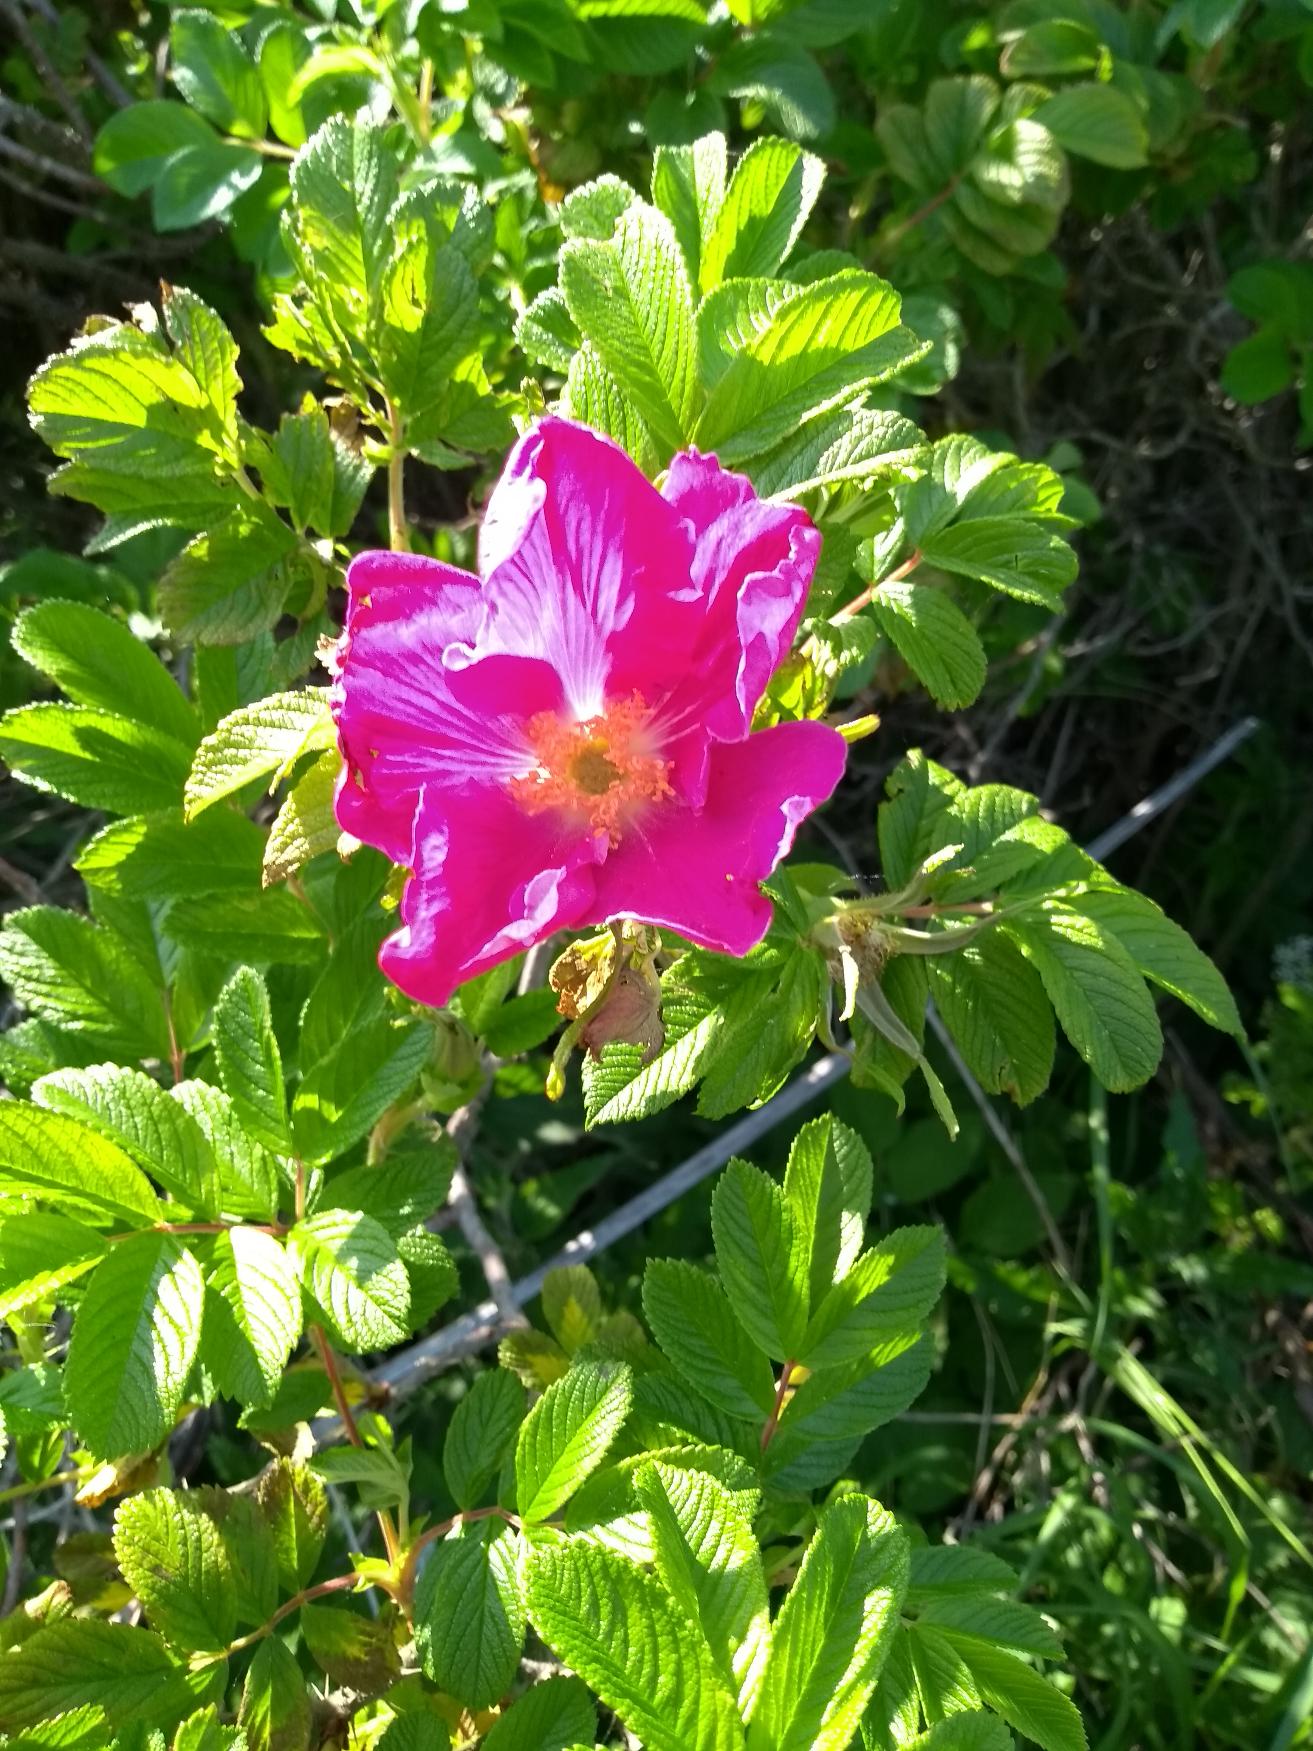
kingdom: Plantae
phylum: Tracheophyta
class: Magnoliopsida
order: Rosales
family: Rosaceae
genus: Rosa
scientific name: Rosa rugosa
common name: Rynket rose
